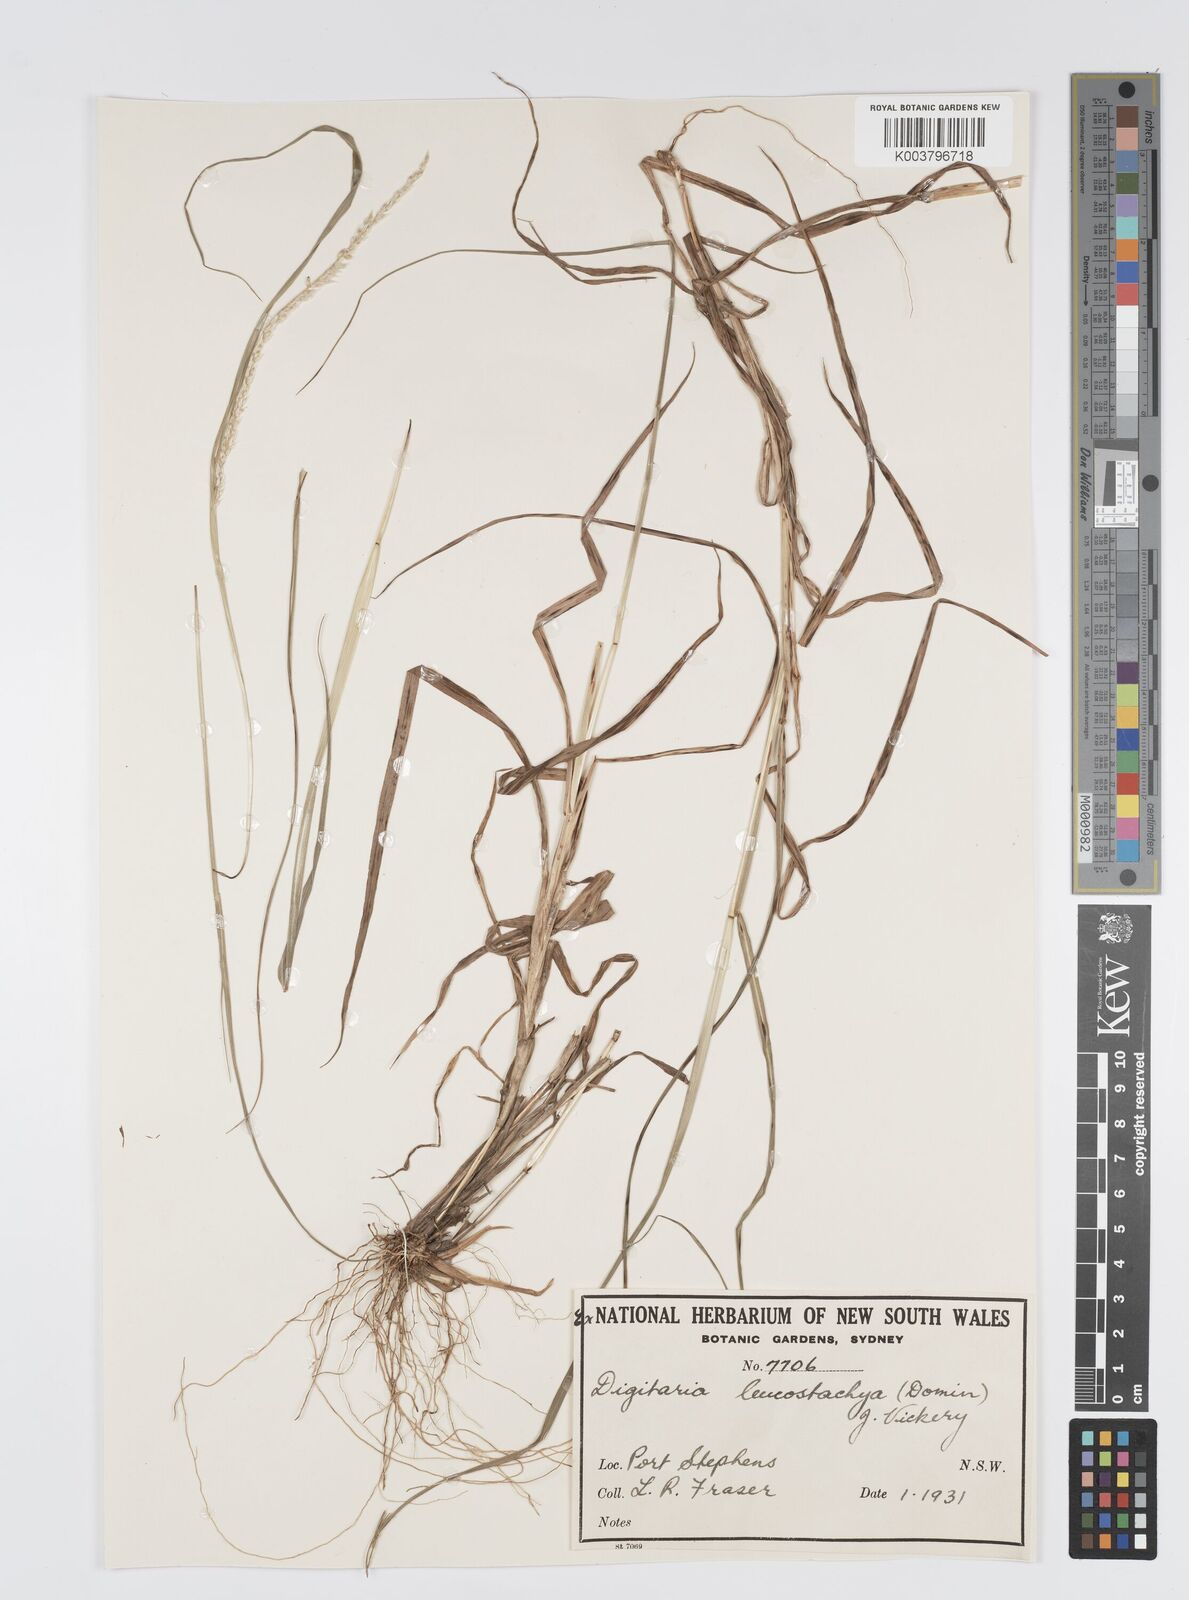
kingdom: Plantae
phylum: Tracheophyta
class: Liliopsida
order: Poales
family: Poaceae
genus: Digitaria
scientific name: Digitaria leucostachya
